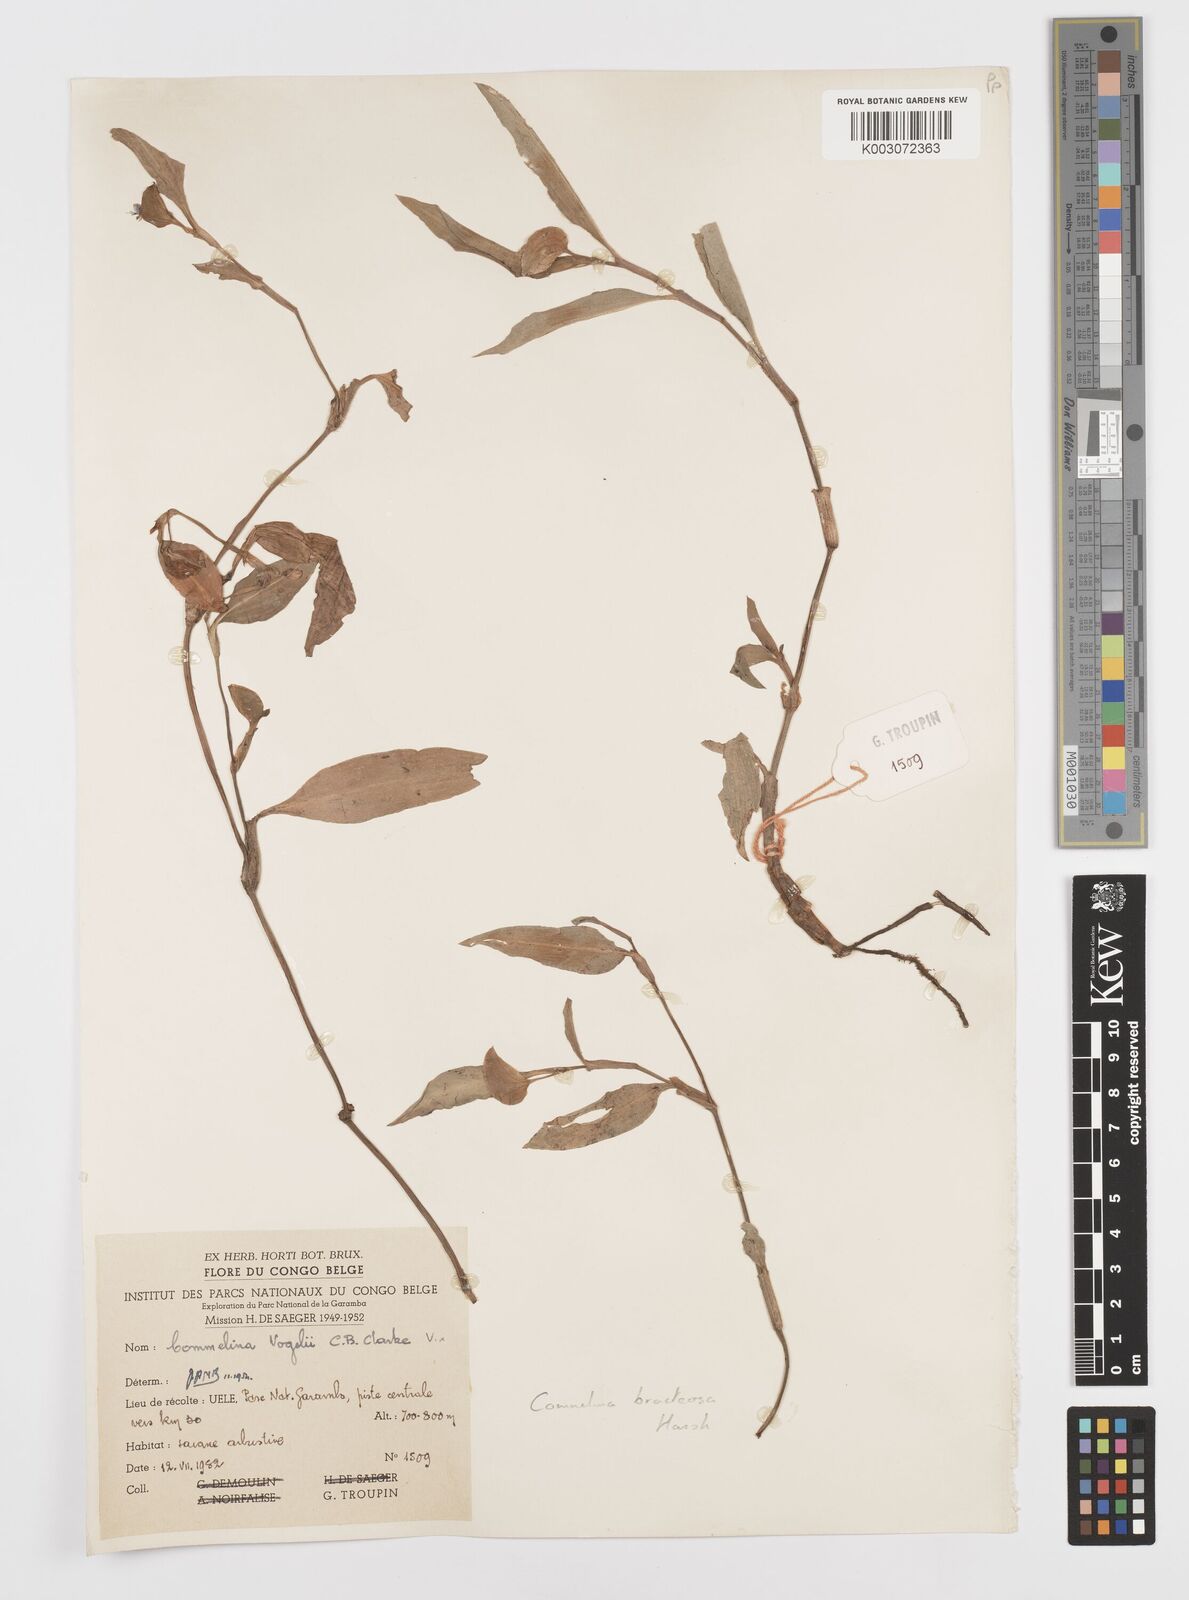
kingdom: Plantae
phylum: Tracheophyta
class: Liliopsida
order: Commelinales
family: Commelinaceae
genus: Commelina
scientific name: Commelina bracteosa
